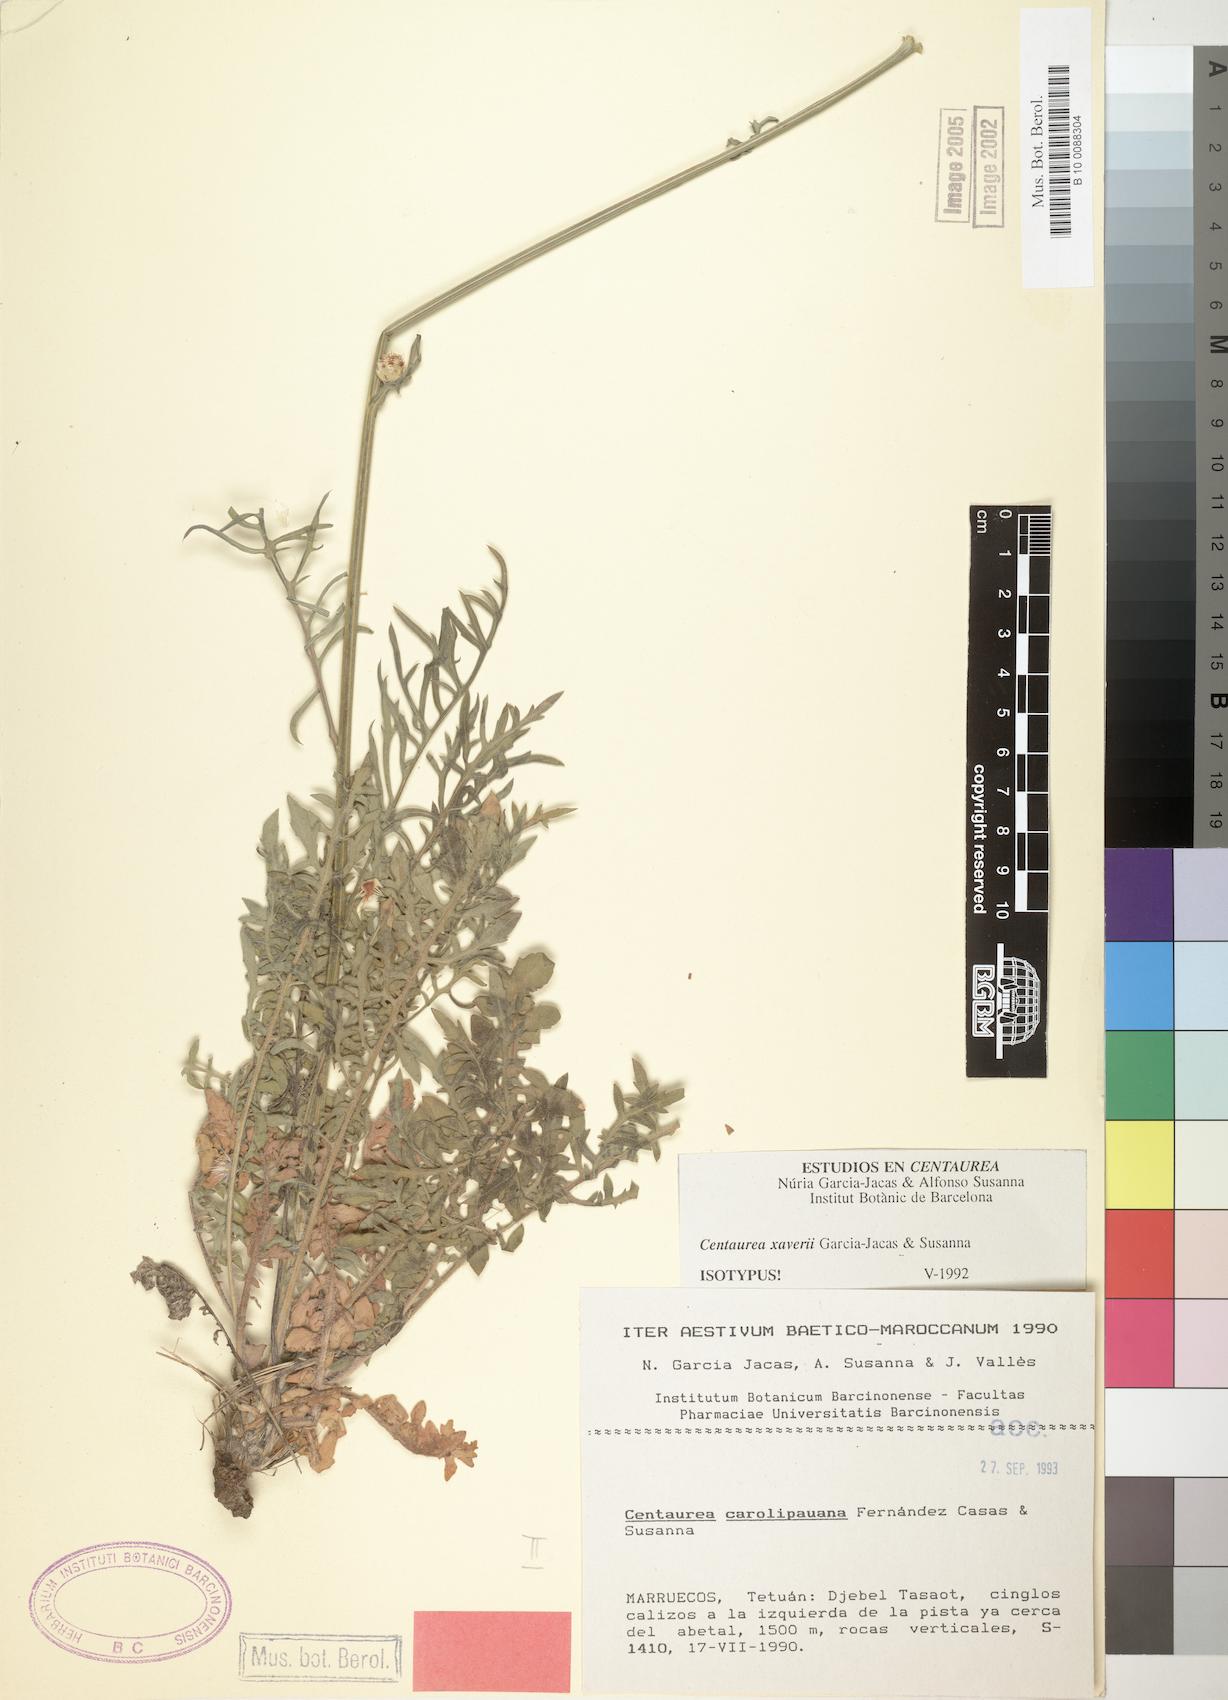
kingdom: Plantae
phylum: Tracheophyta
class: Magnoliopsida
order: Asterales
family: Asteraceae
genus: Centaurea
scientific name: Centaurea xaveri
